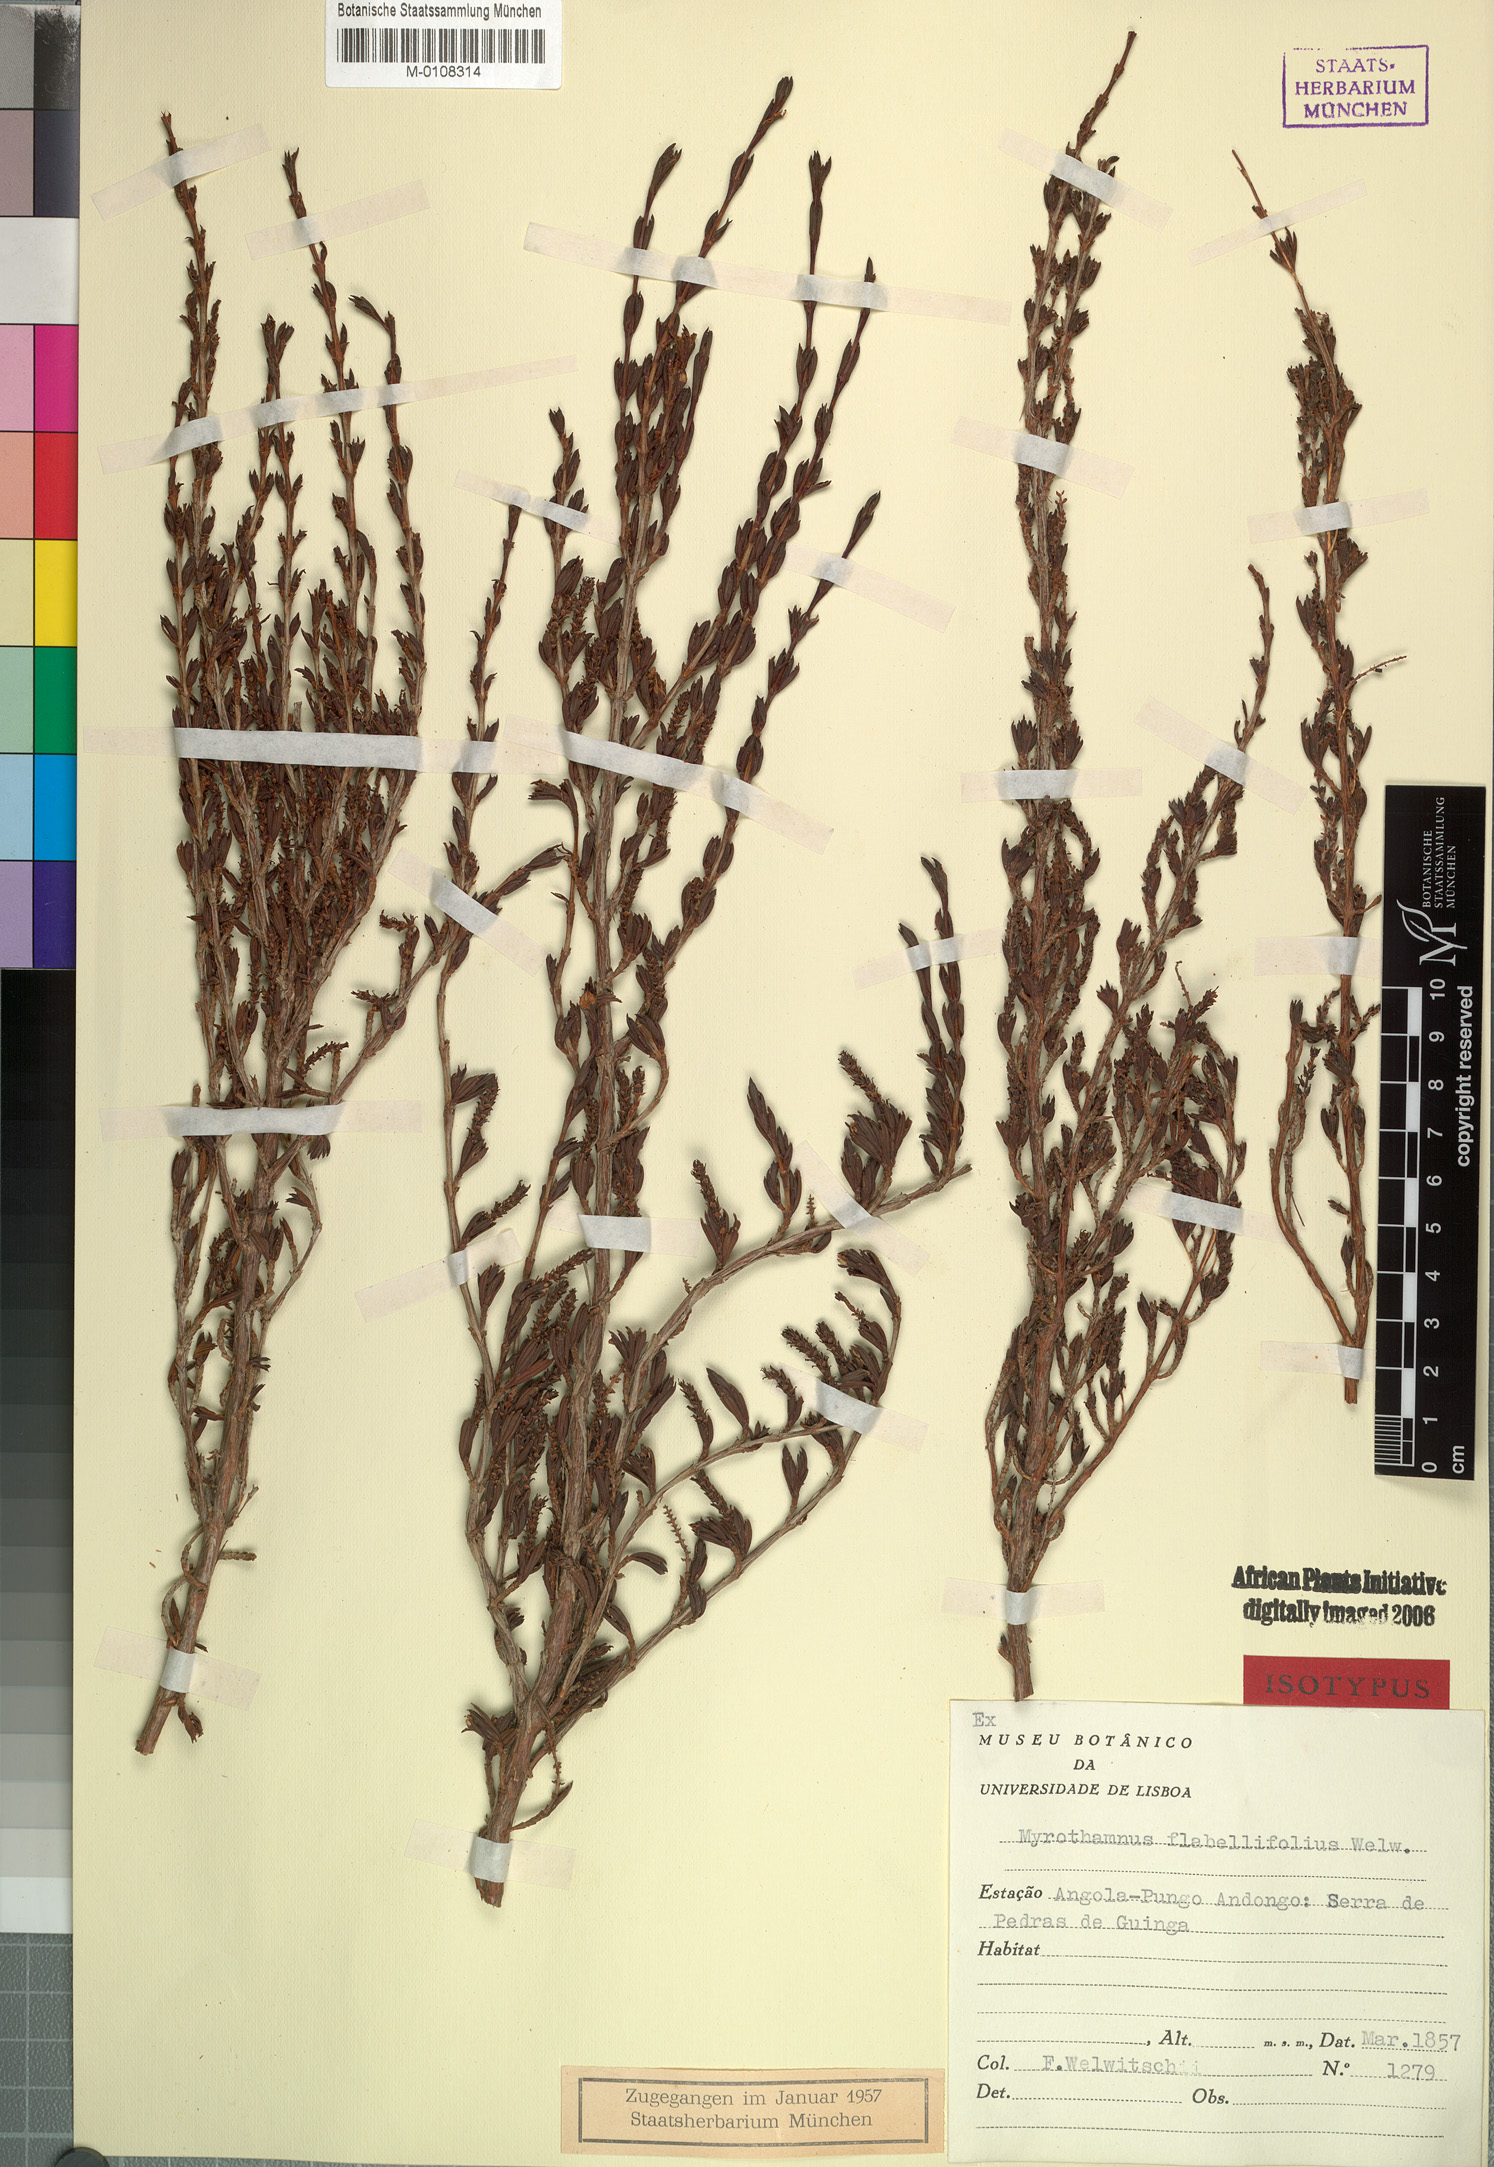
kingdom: Plantae
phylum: Tracheophyta
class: Magnoliopsida
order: Gunnerales
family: Myrothamnaceae
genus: Myrothamnus
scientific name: Myrothamnus flabellifolius
